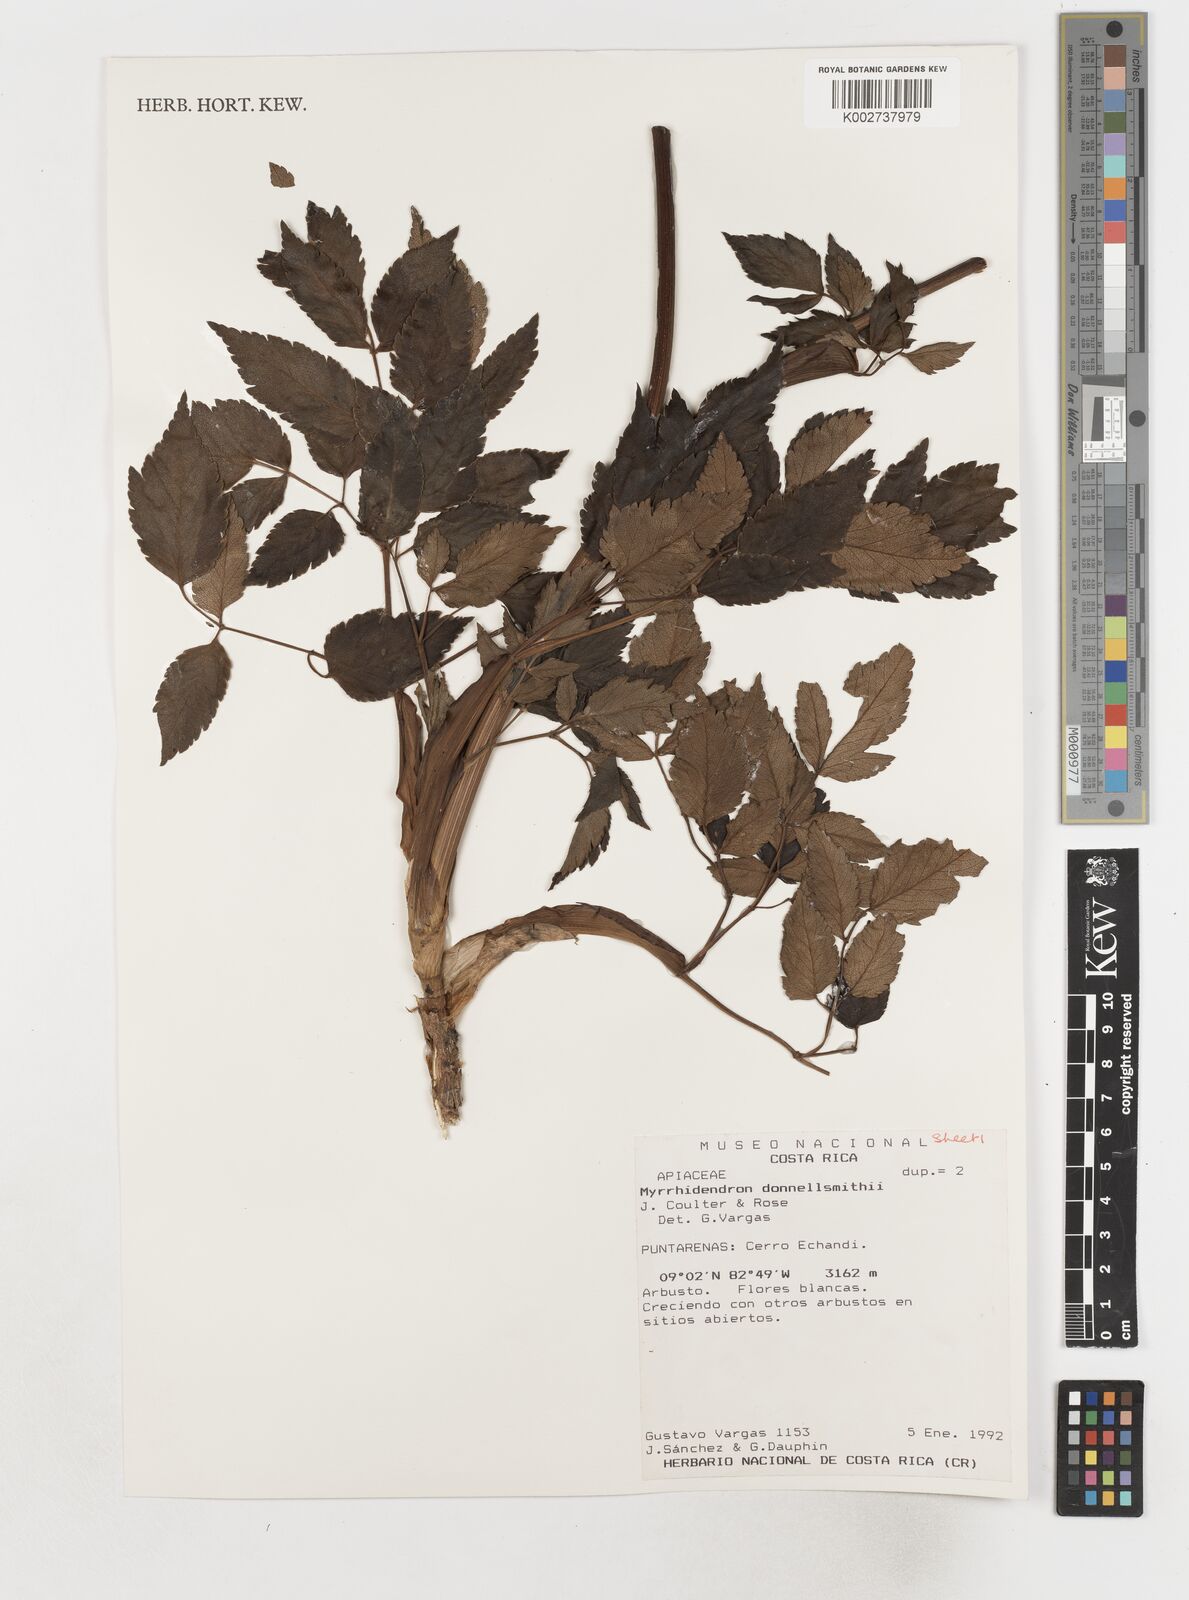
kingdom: Plantae
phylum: Tracheophyta
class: Magnoliopsida
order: Apiales
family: Apiaceae
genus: Myrrhidendron
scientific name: Myrrhidendron donnellsmithii
